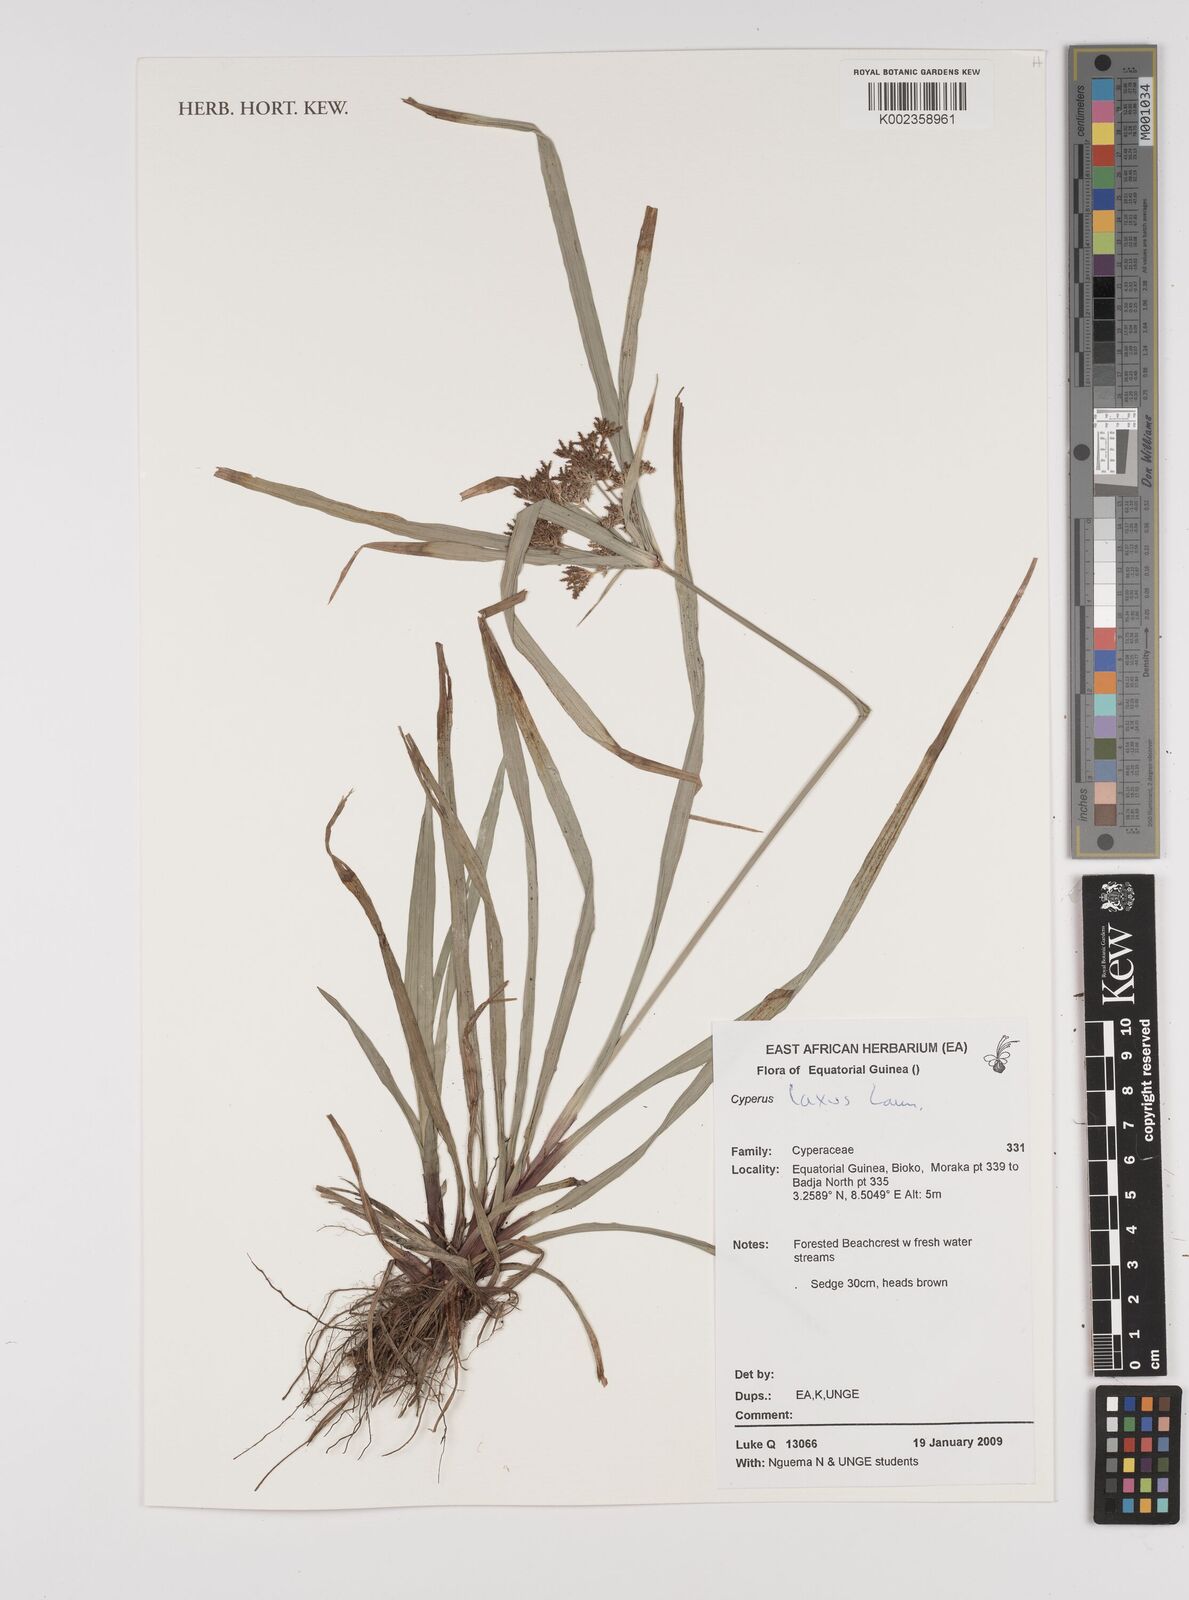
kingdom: Plantae
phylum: Tracheophyta
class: Liliopsida
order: Poales
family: Cyperaceae
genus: Cyperus
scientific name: Cyperus diffusus
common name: Dwarf umbrella grass
